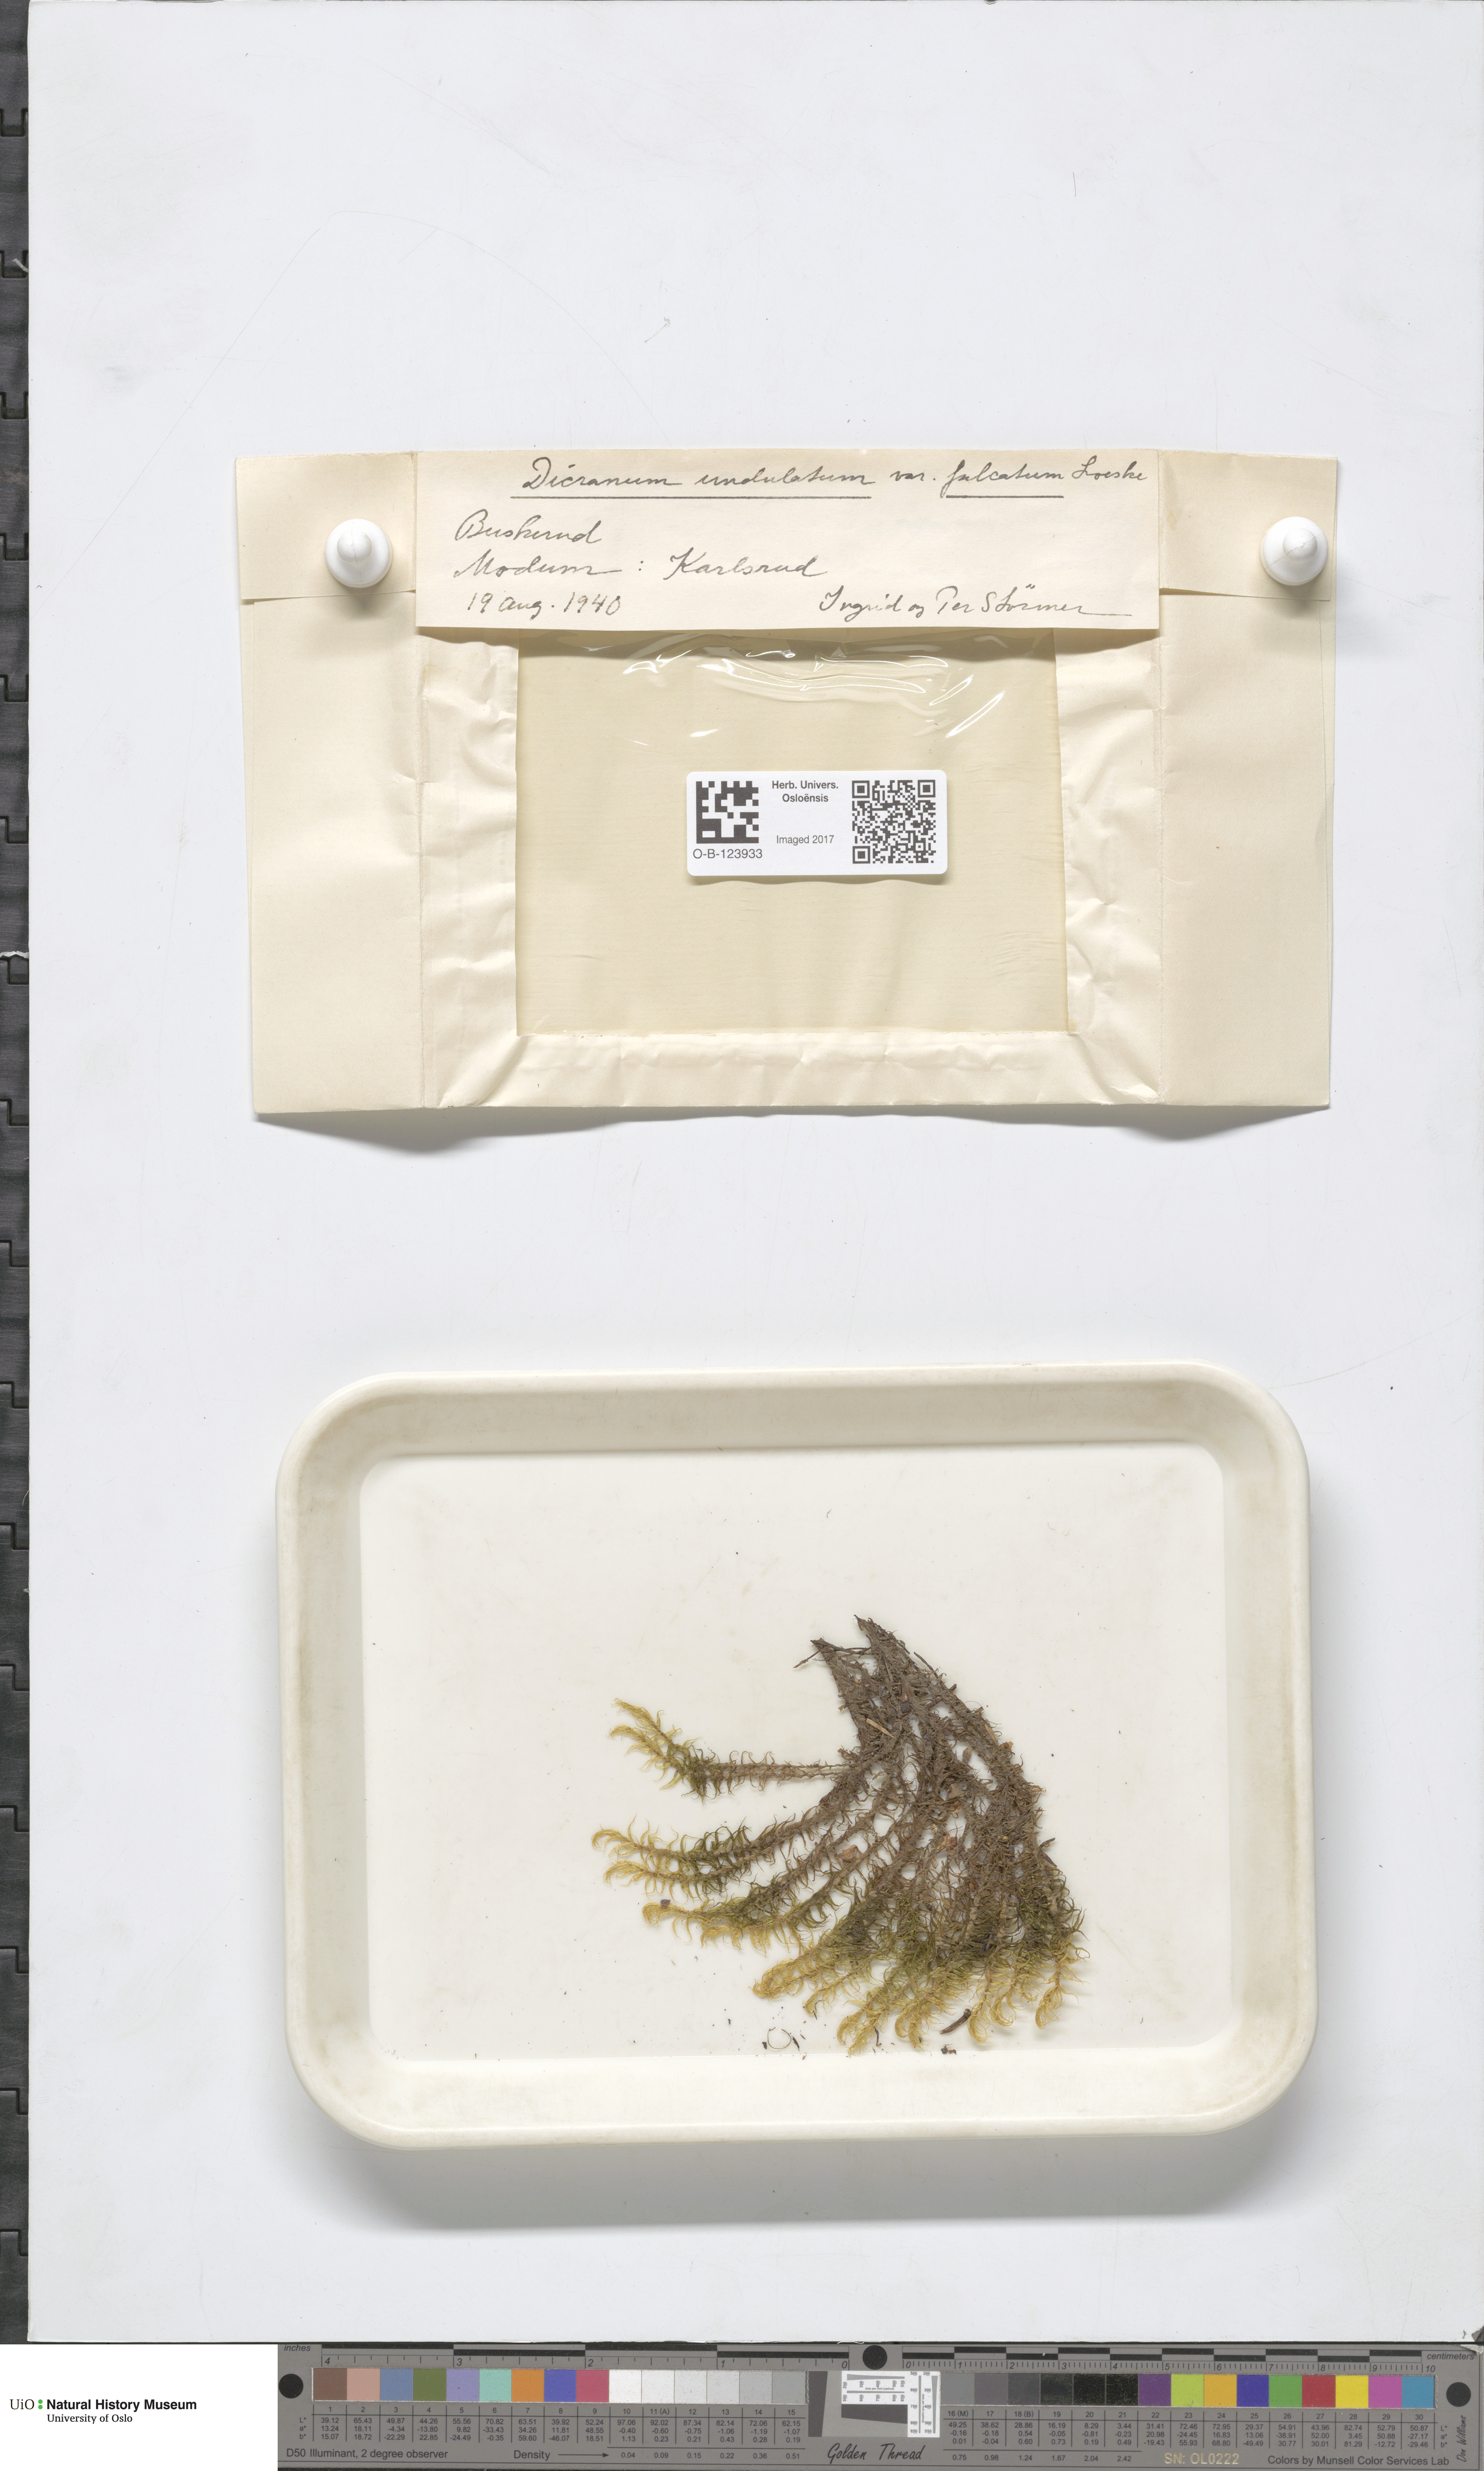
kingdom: Plantae
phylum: Bryophyta
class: Bryopsida
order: Dicranales
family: Dicranaceae
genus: Dicranum
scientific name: Dicranum polysetum
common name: Rugose fork-moss
